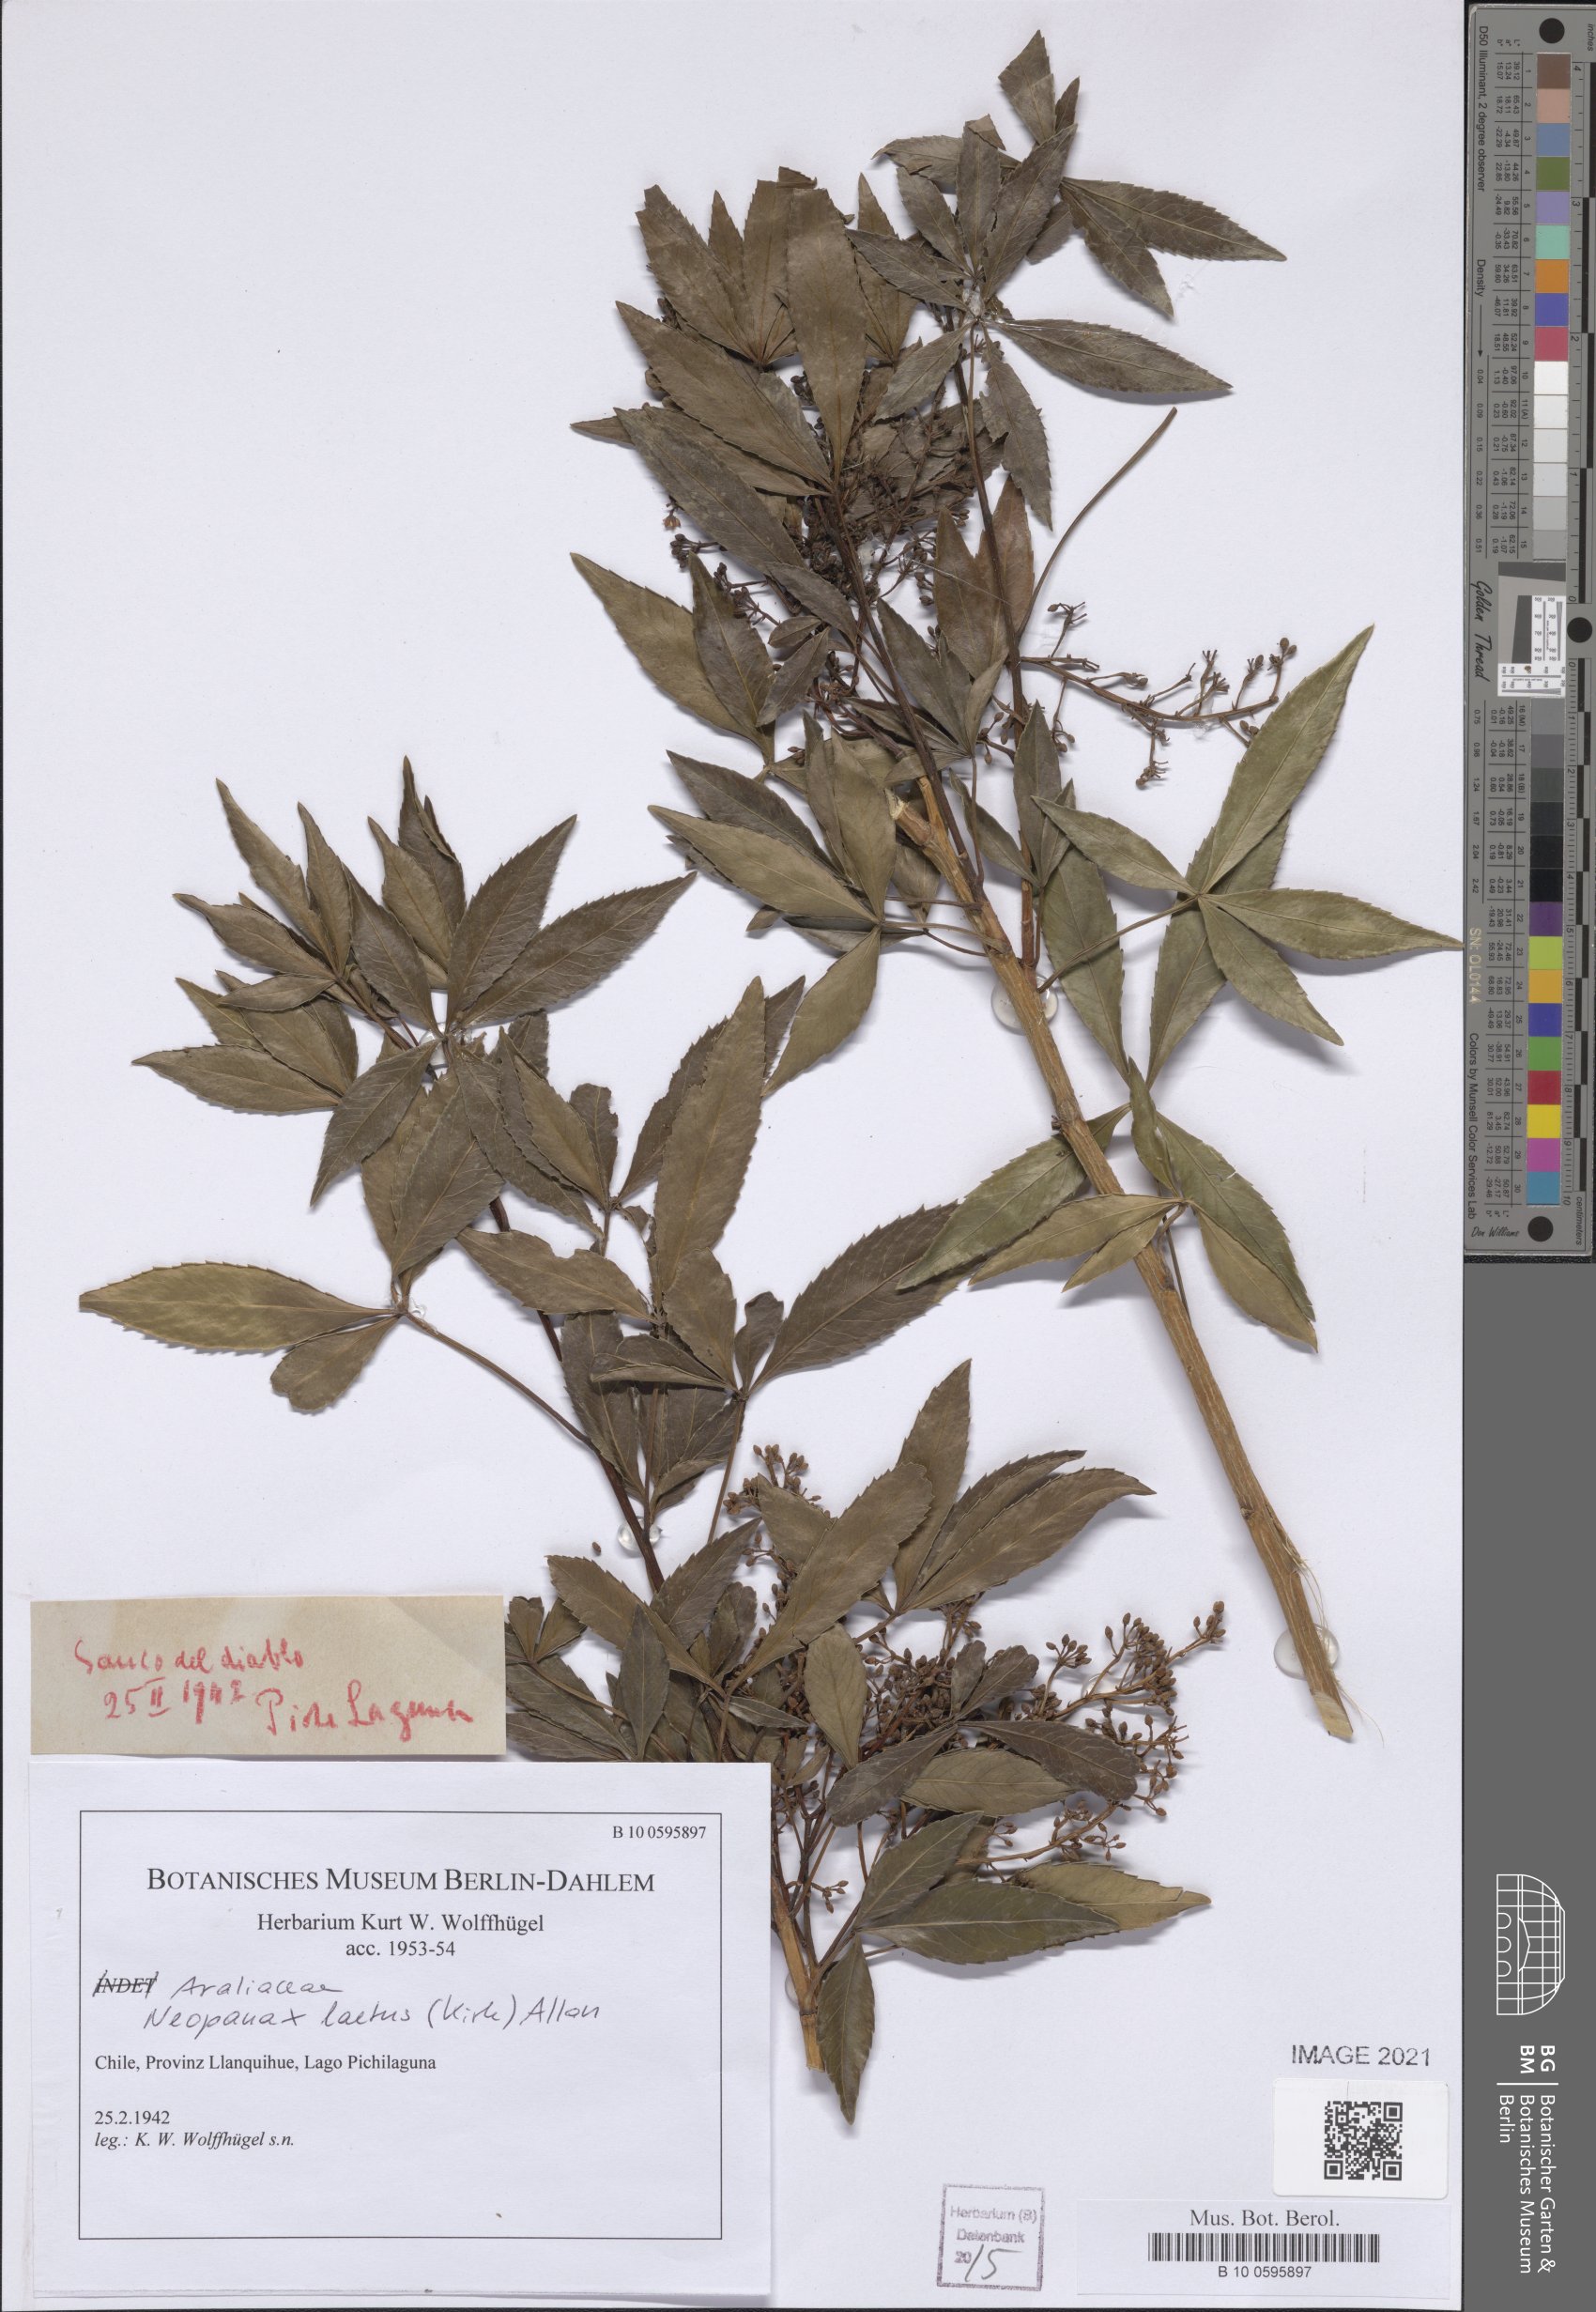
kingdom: Plantae
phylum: Tracheophyta
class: Magnoliopsida
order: Apiales
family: Araliaceae
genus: Neopanax
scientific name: Neopanax laetus
